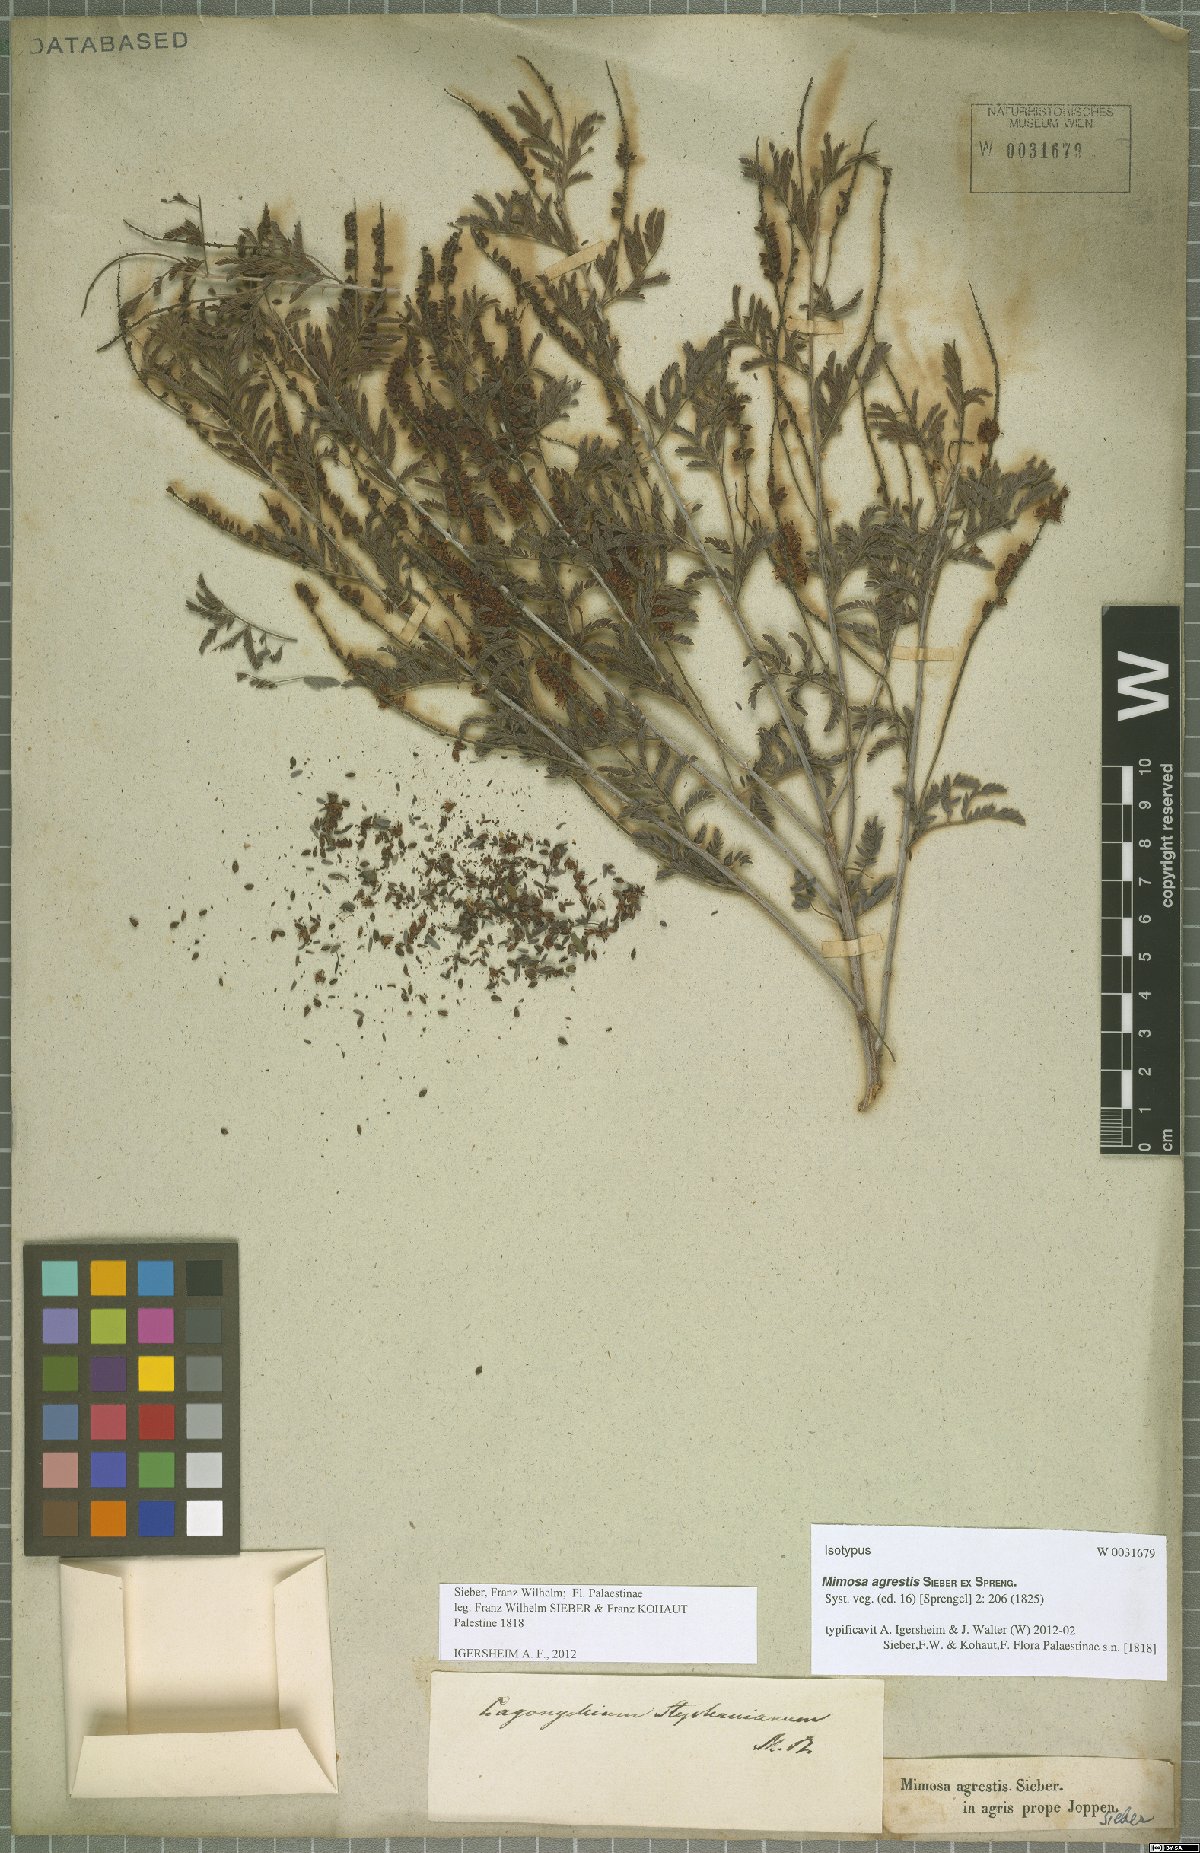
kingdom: Plantae
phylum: Tracheophyta
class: Magnoliopsida
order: Fabales
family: Fabaceae
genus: Prosopis
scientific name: Prosopis farcta
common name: Syrian mesquite
